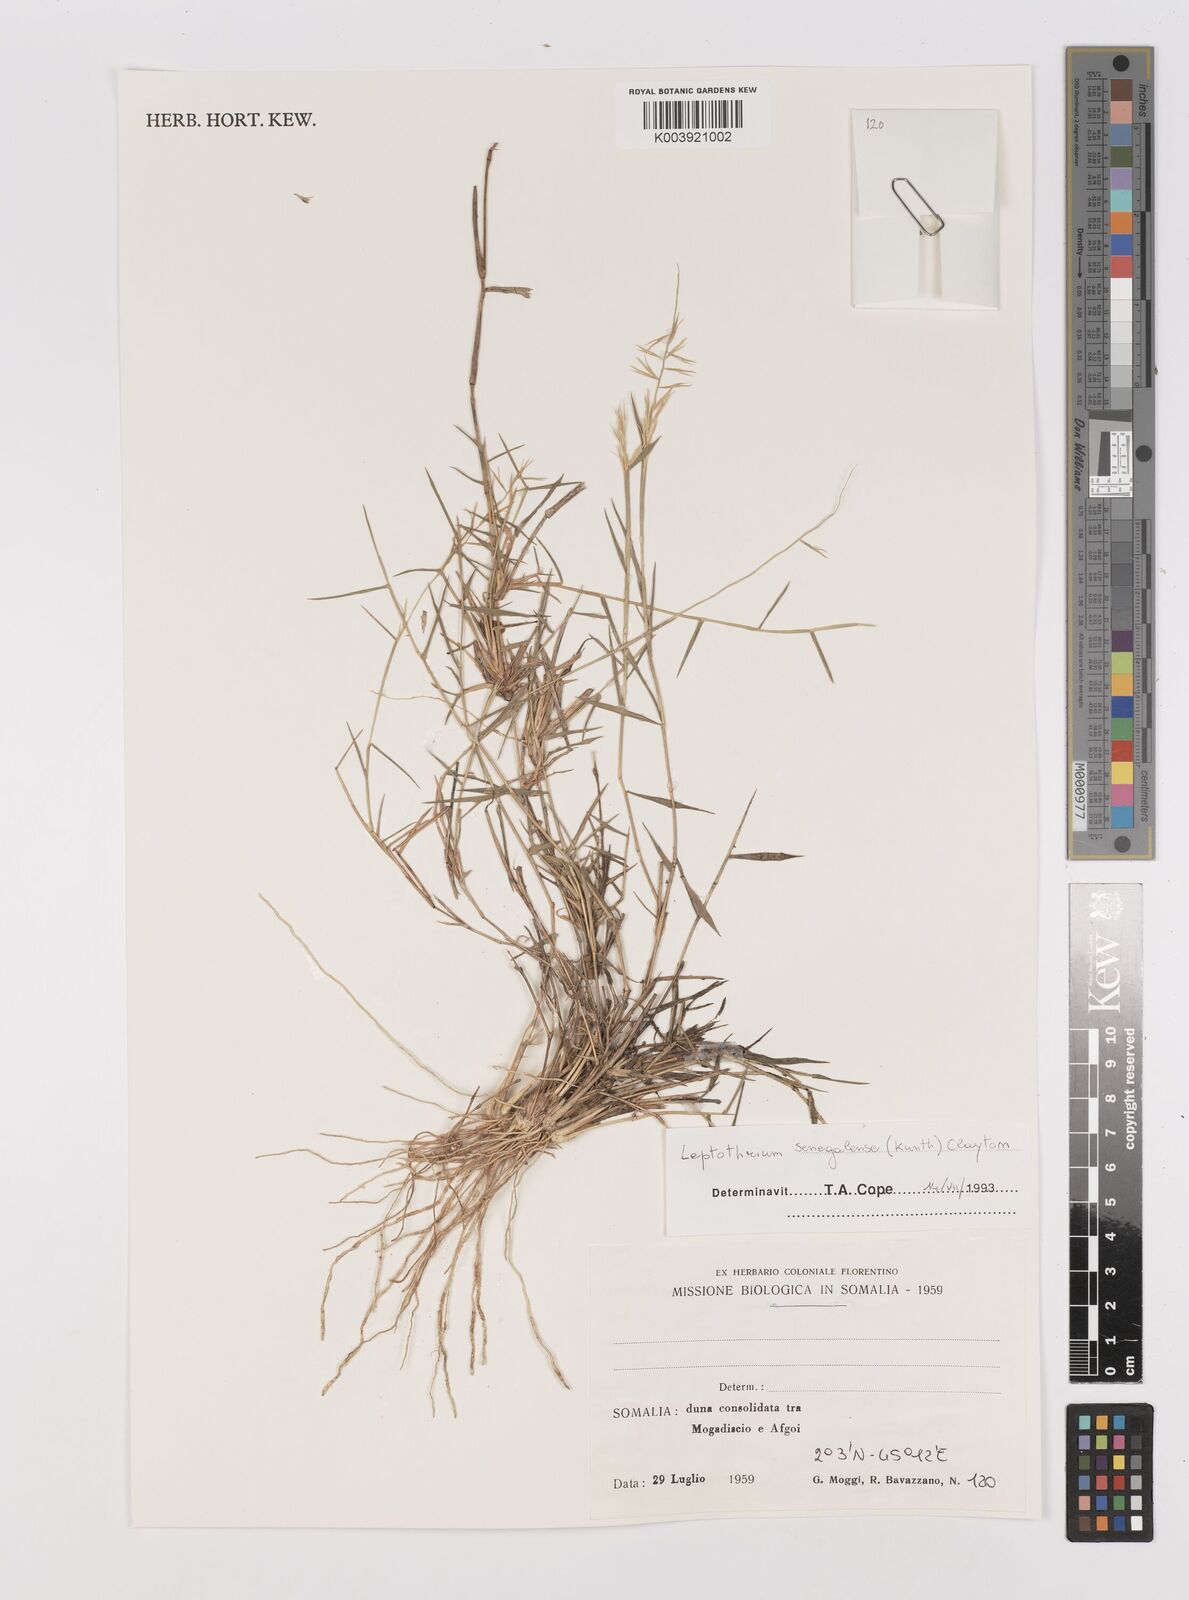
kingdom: Plantae
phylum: Tracheophyta
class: Liliopsida
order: Poales
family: Poaceae
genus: Leptothrium
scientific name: Leptothrium senegalense
